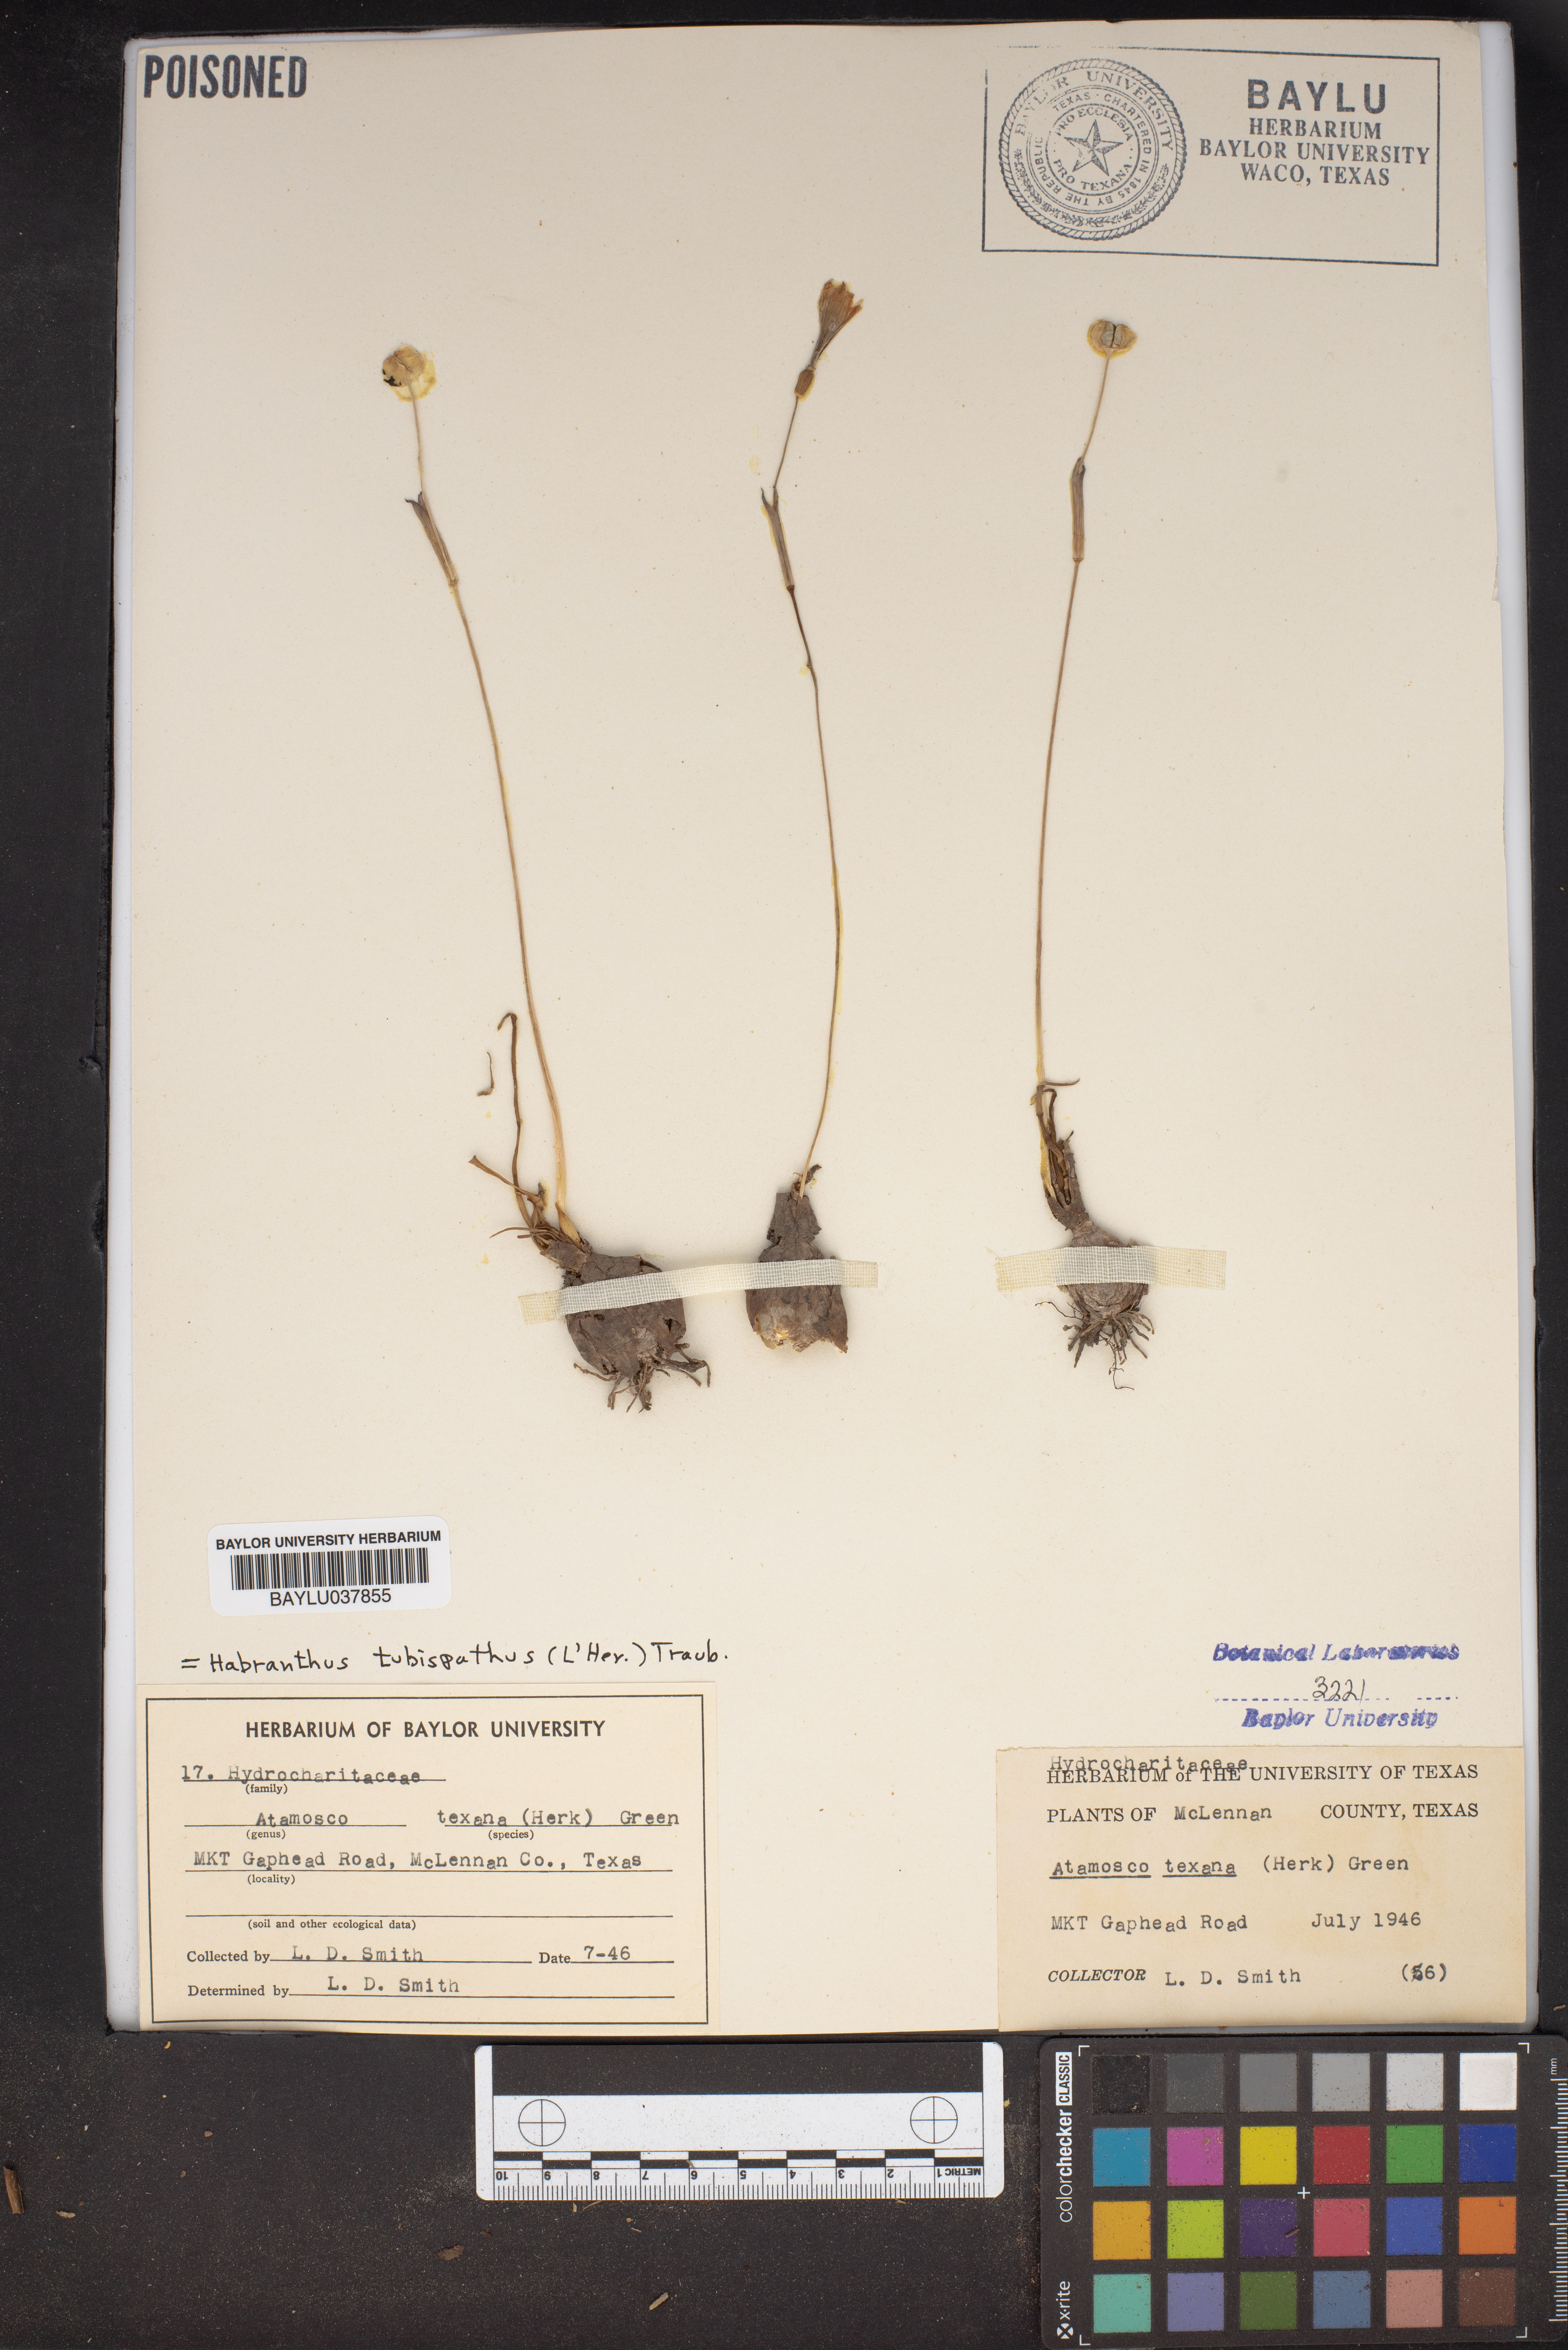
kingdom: Plantae
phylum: Tracheophyta
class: Liliopsida
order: Asparagales
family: Amaryllidaceae
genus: Zephyranthes
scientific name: Zephyranthes tubispatha
